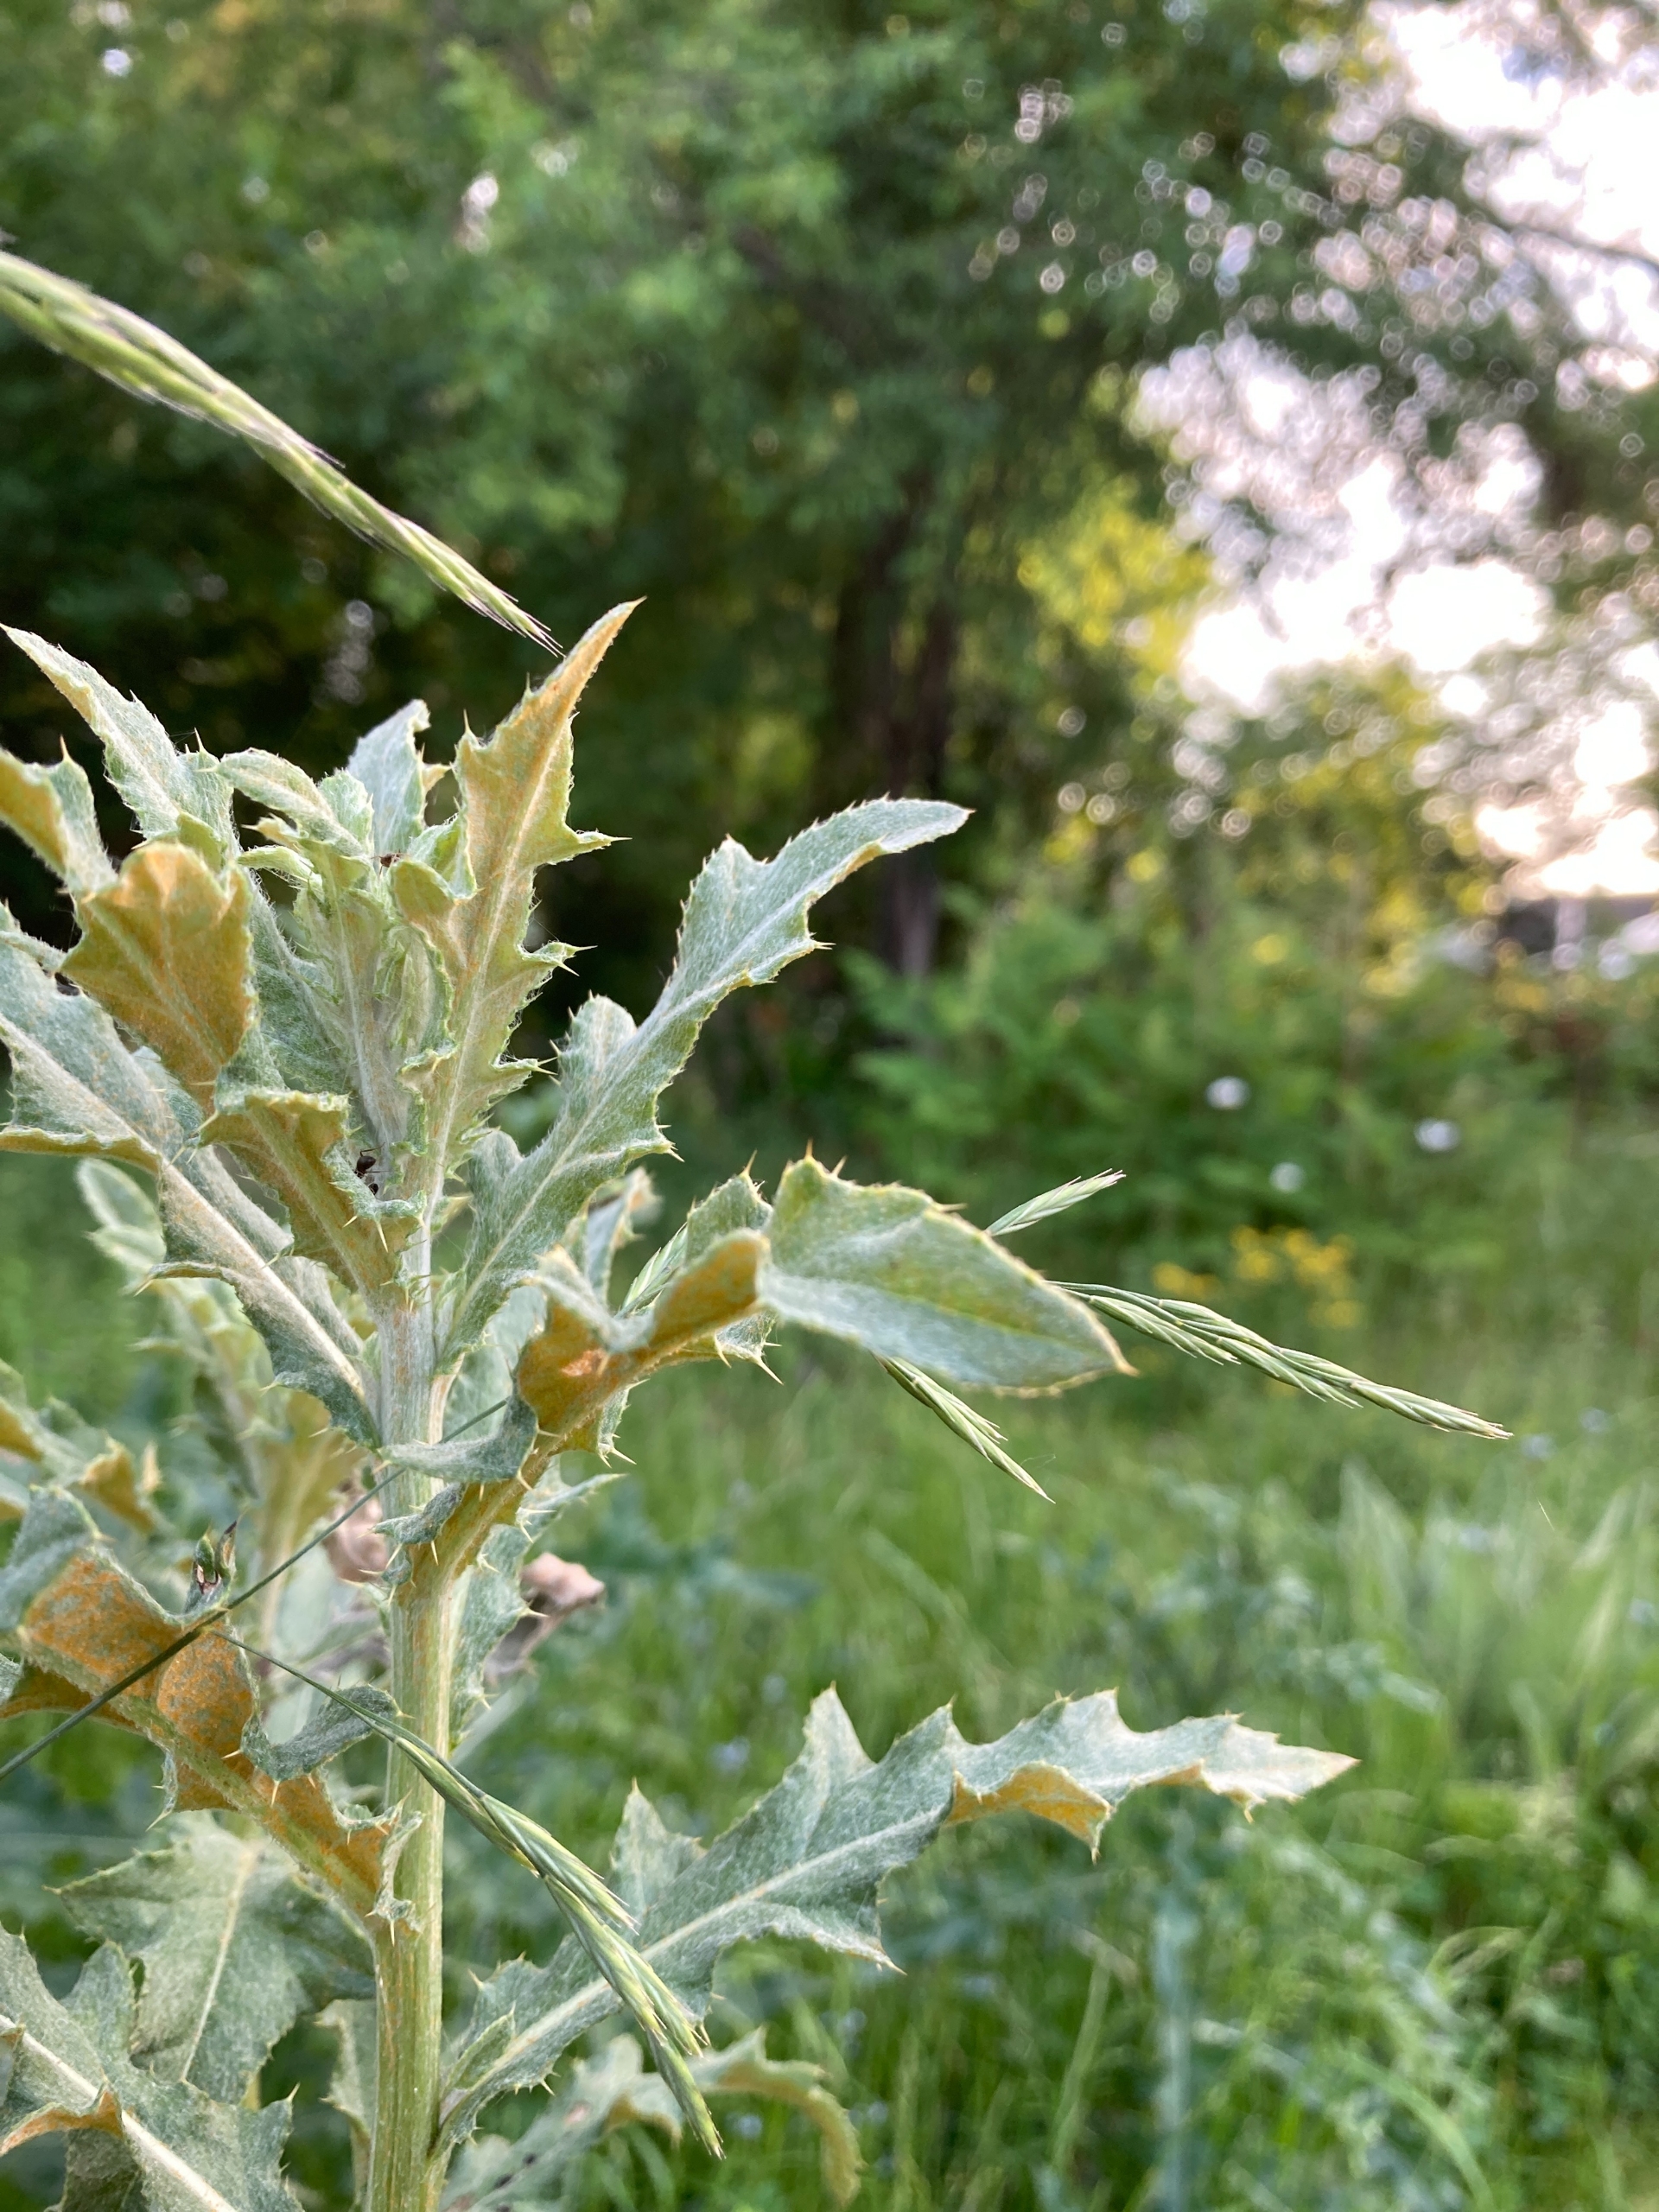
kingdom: Fungi
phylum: Basidiomycota
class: Pucciniomycetes
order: Pucciniales
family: Pucciniaceae
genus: Puccinia
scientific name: Puccinia suaveolens
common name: Tidsel-tvecellerust
